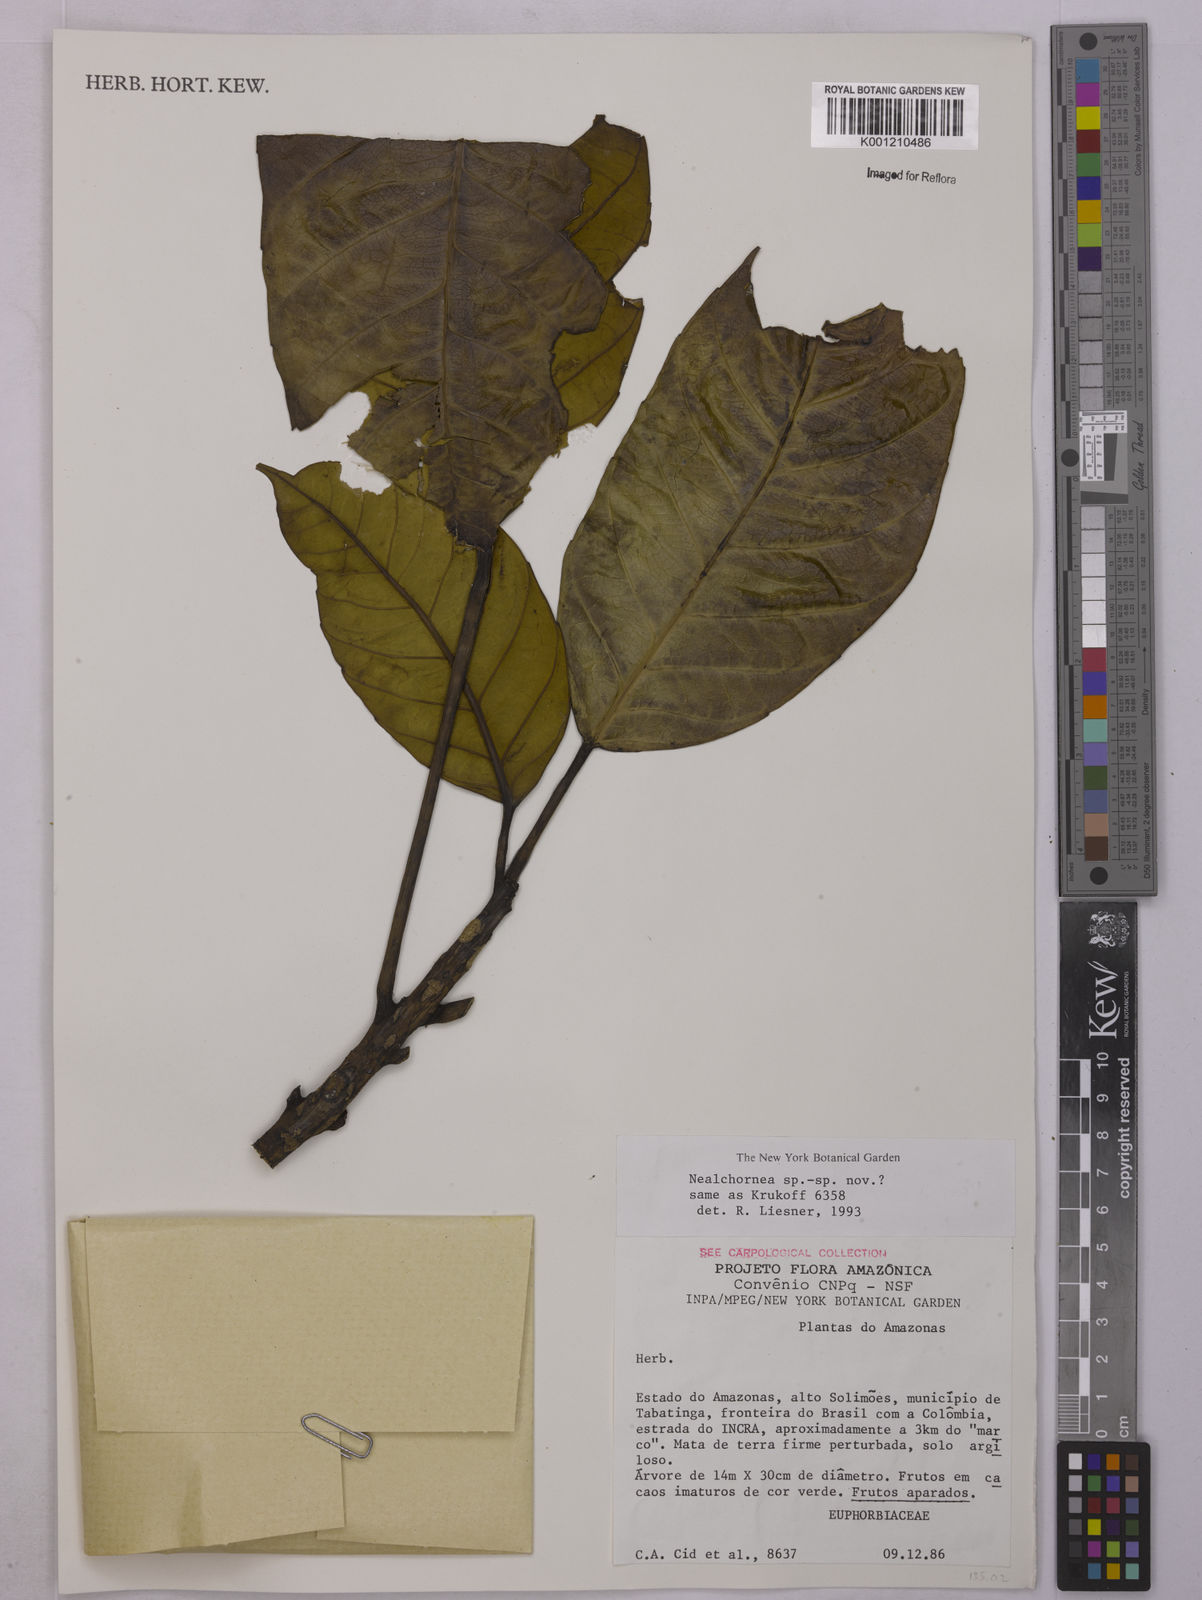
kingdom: Plantae
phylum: Tracheophyta
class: Magnoliopsida
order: Malpighiales
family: Euphorbiaceae
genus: Nealchornea
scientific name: Nealchornea
